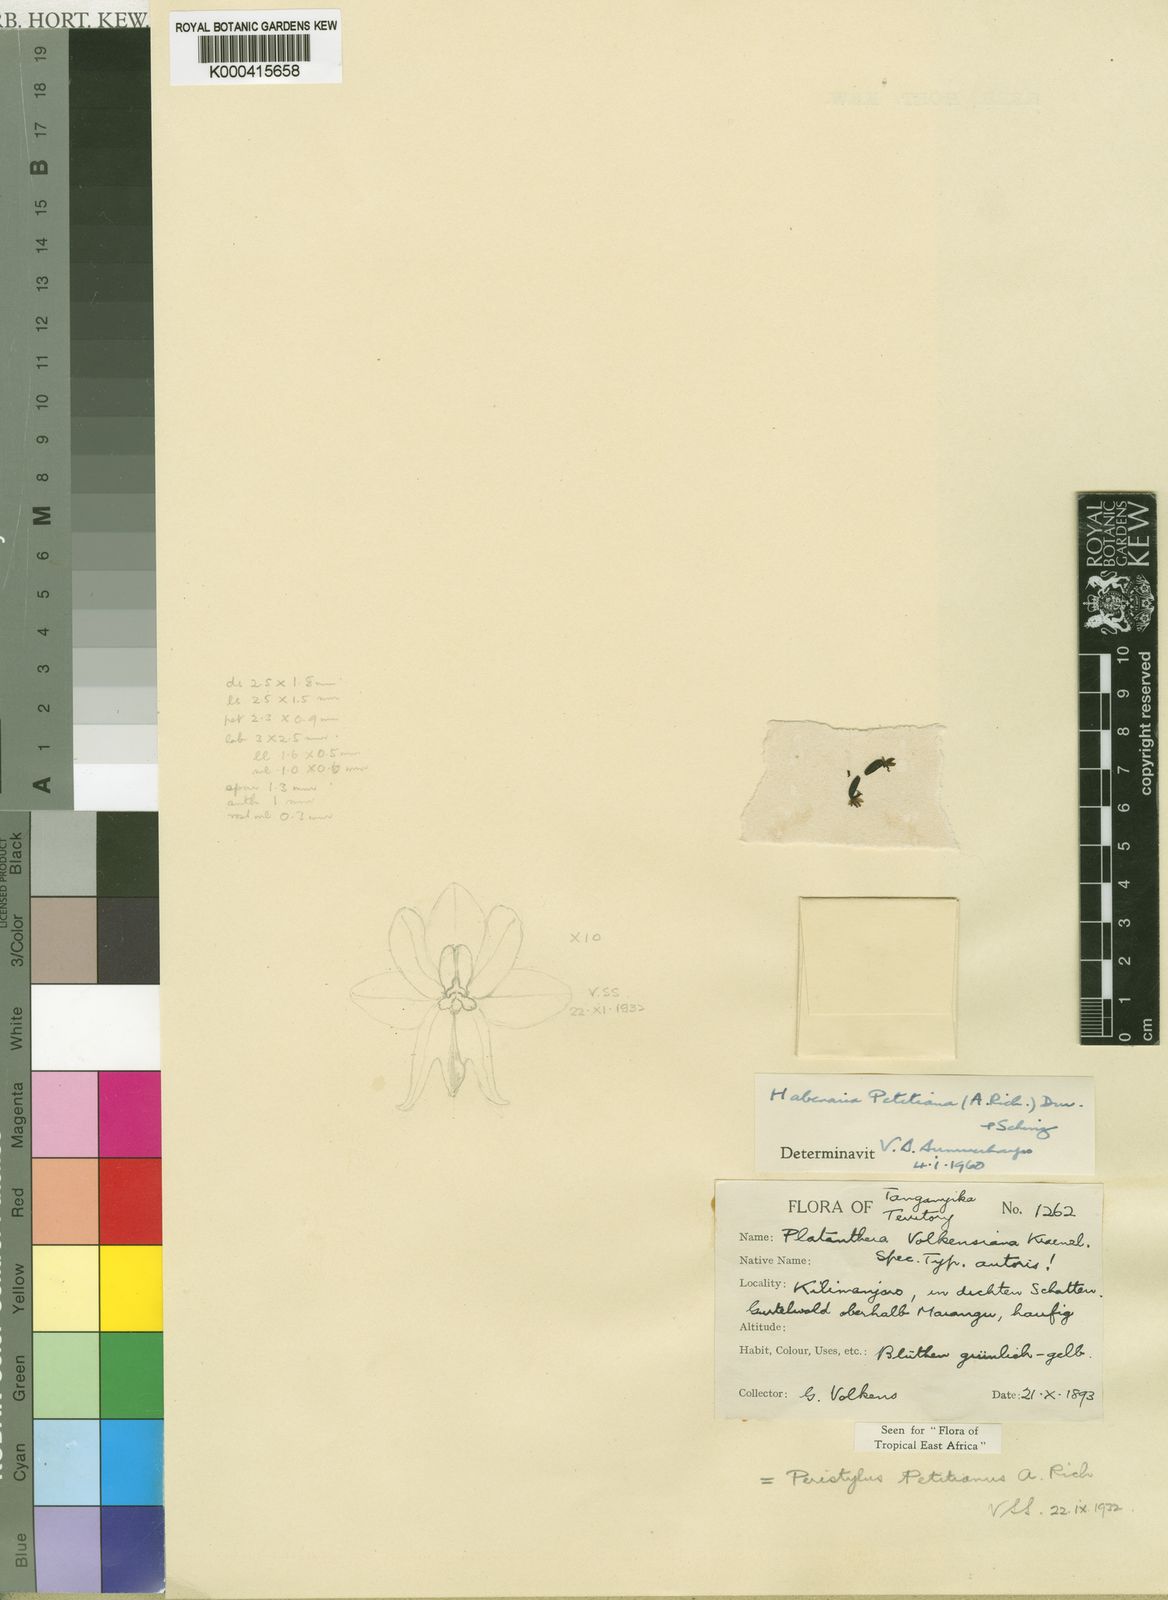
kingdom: Plantae
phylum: Tracheophyta
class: Liliopsida
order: Asparagales
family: Orchidaceae
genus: Habenaria
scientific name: Habenaria petitiana
